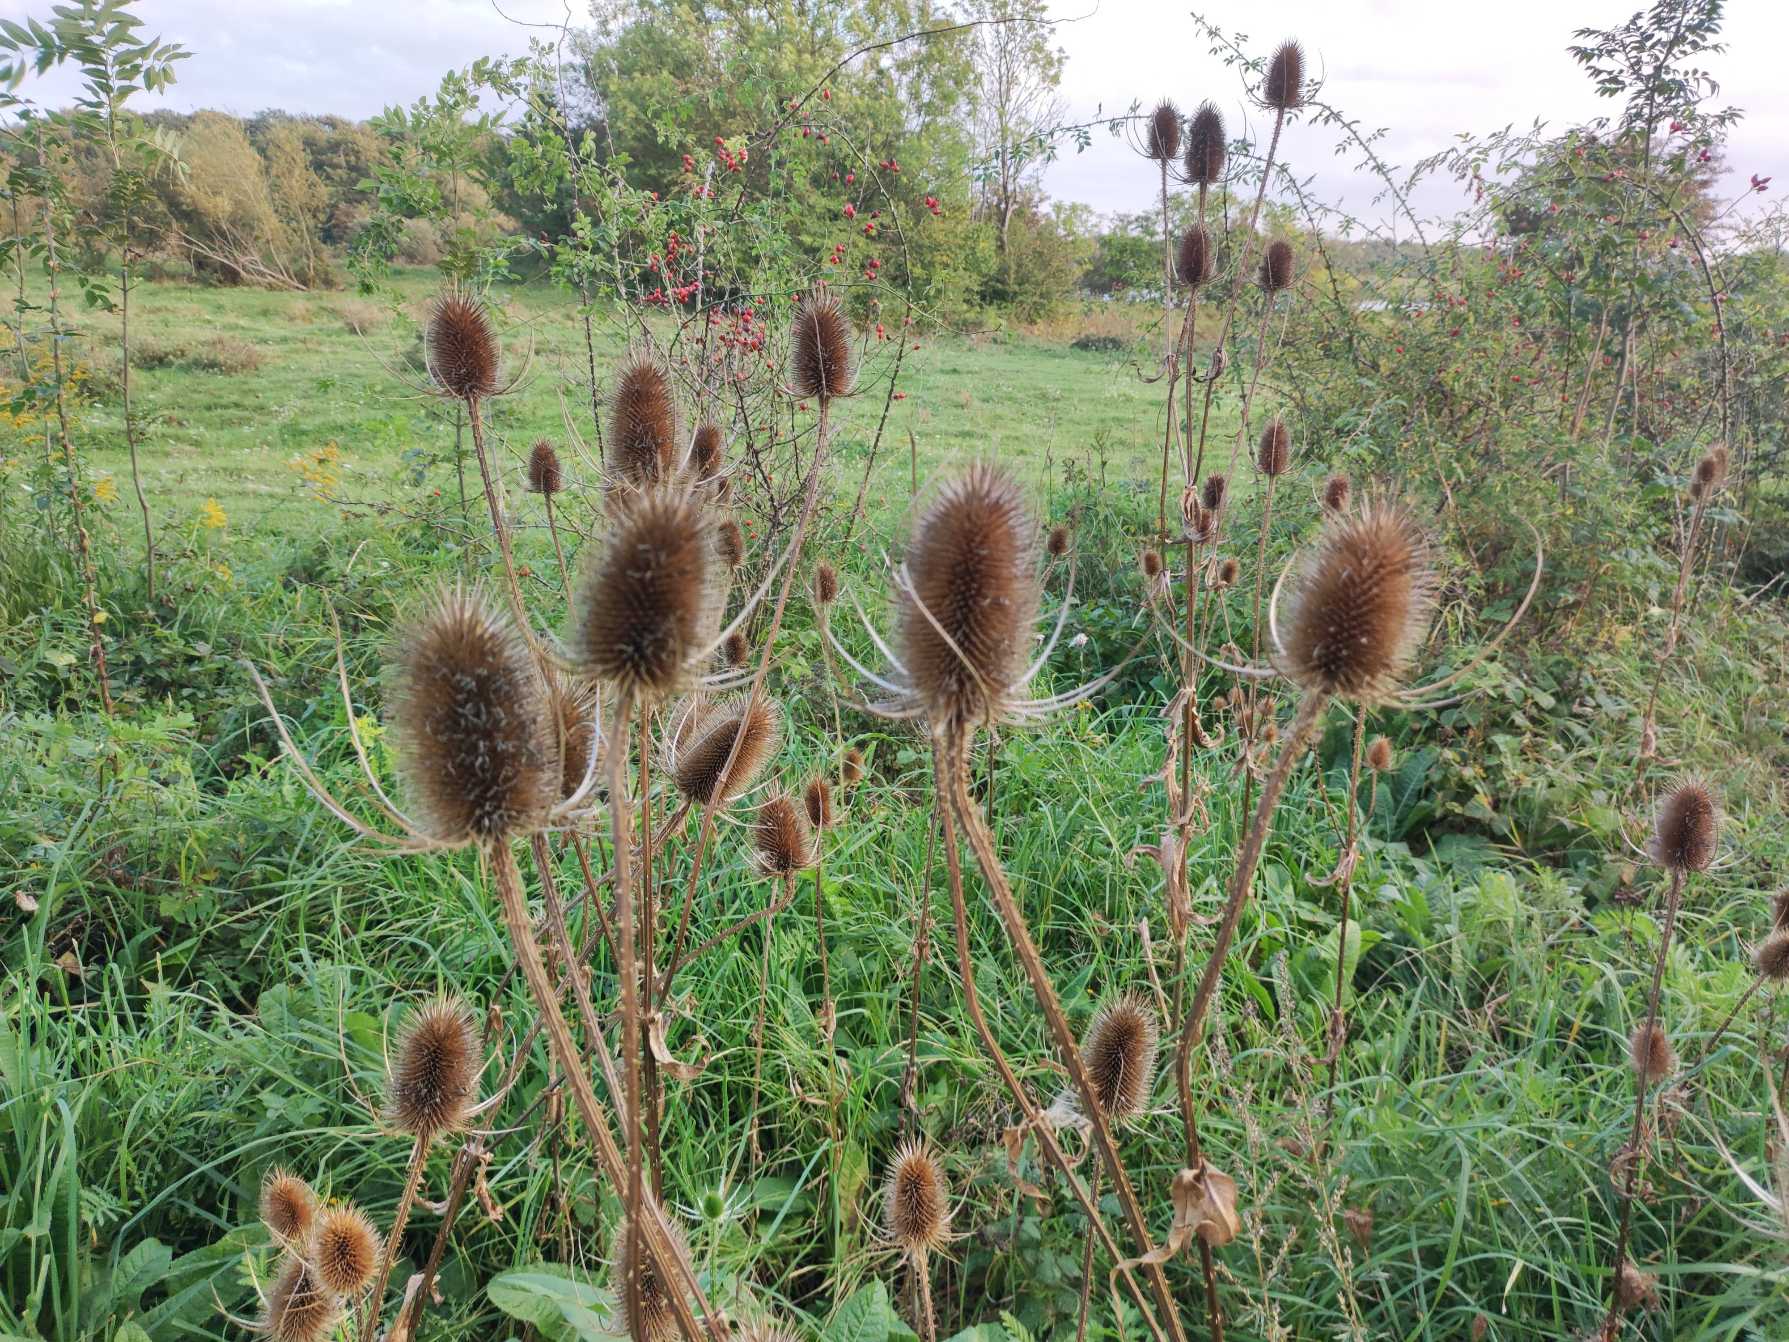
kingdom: Plantae
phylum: Tracheophyta
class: Magnoliopsida
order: Dipsacales
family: Caprifoliaceae
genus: Dipsacus
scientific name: Dipsacus fullonum
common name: Gærde-kartebolle
